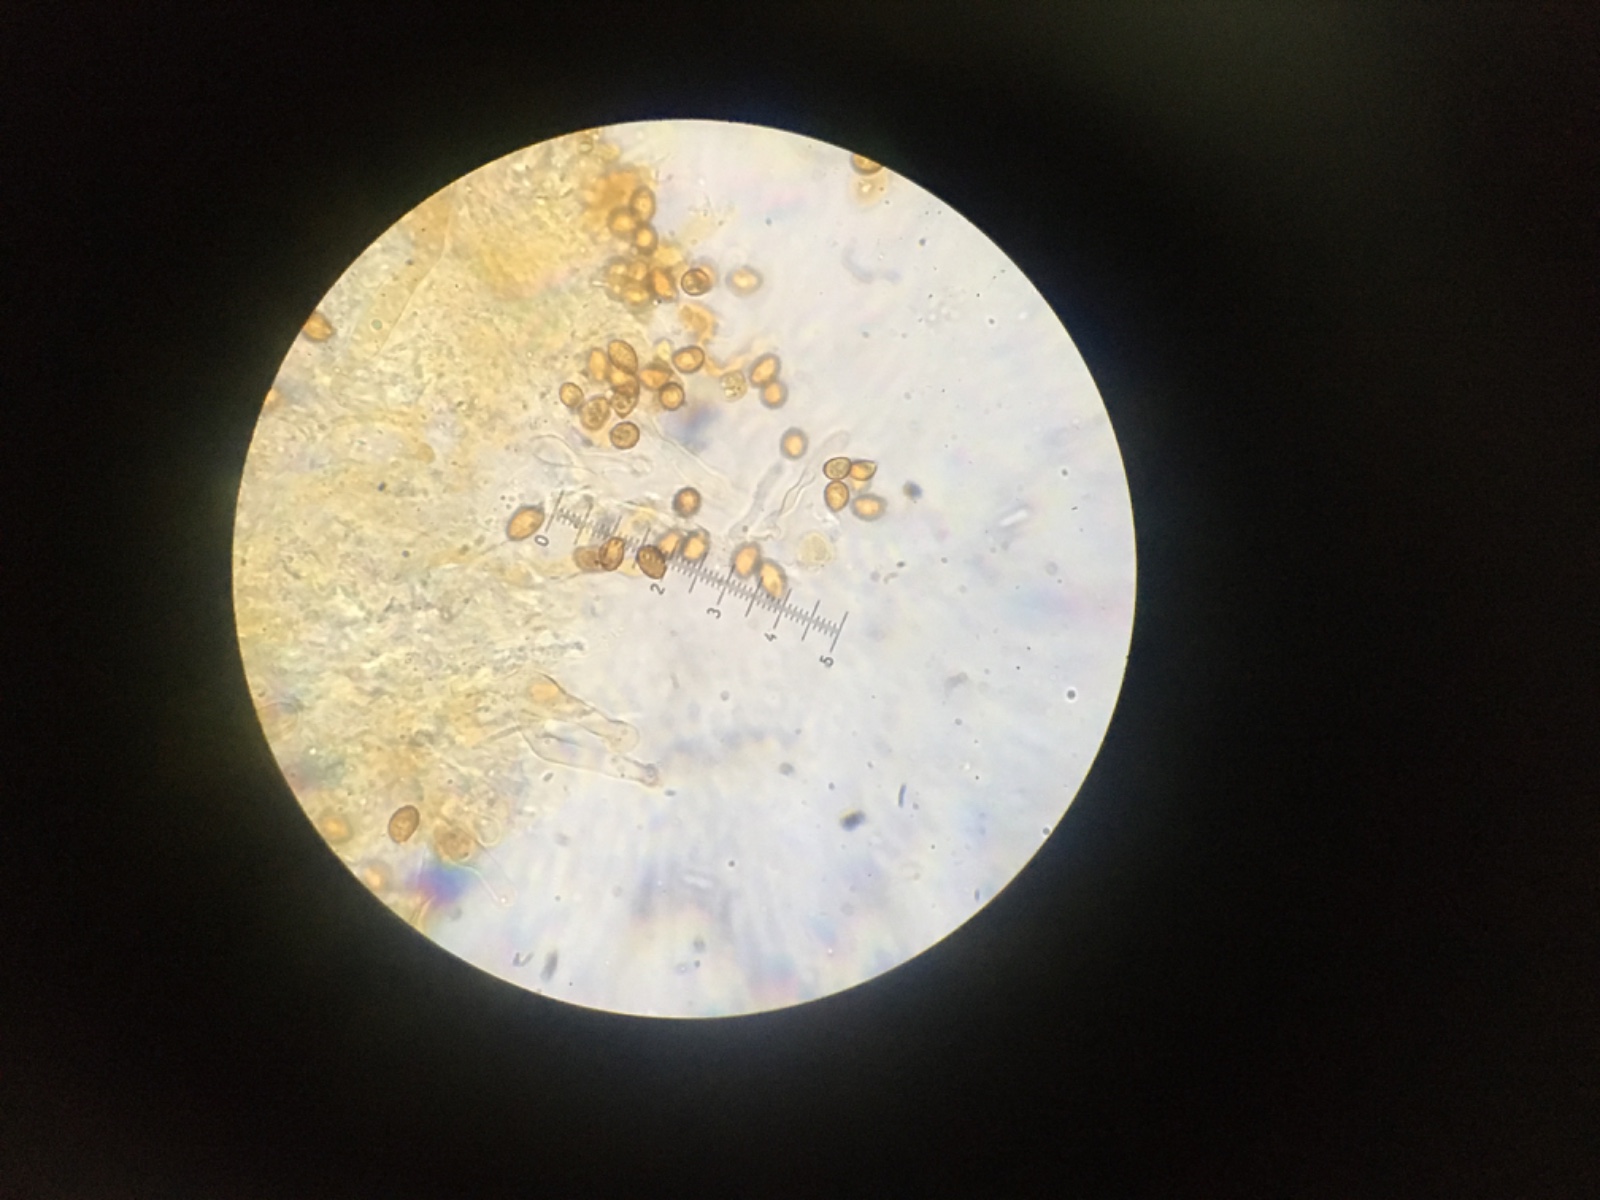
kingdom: Fungi
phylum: Basidiomycota
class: Agaricomycetes
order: Agaricales
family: Hymenogastraceae
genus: Gymnopilus
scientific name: Gymnopilus
